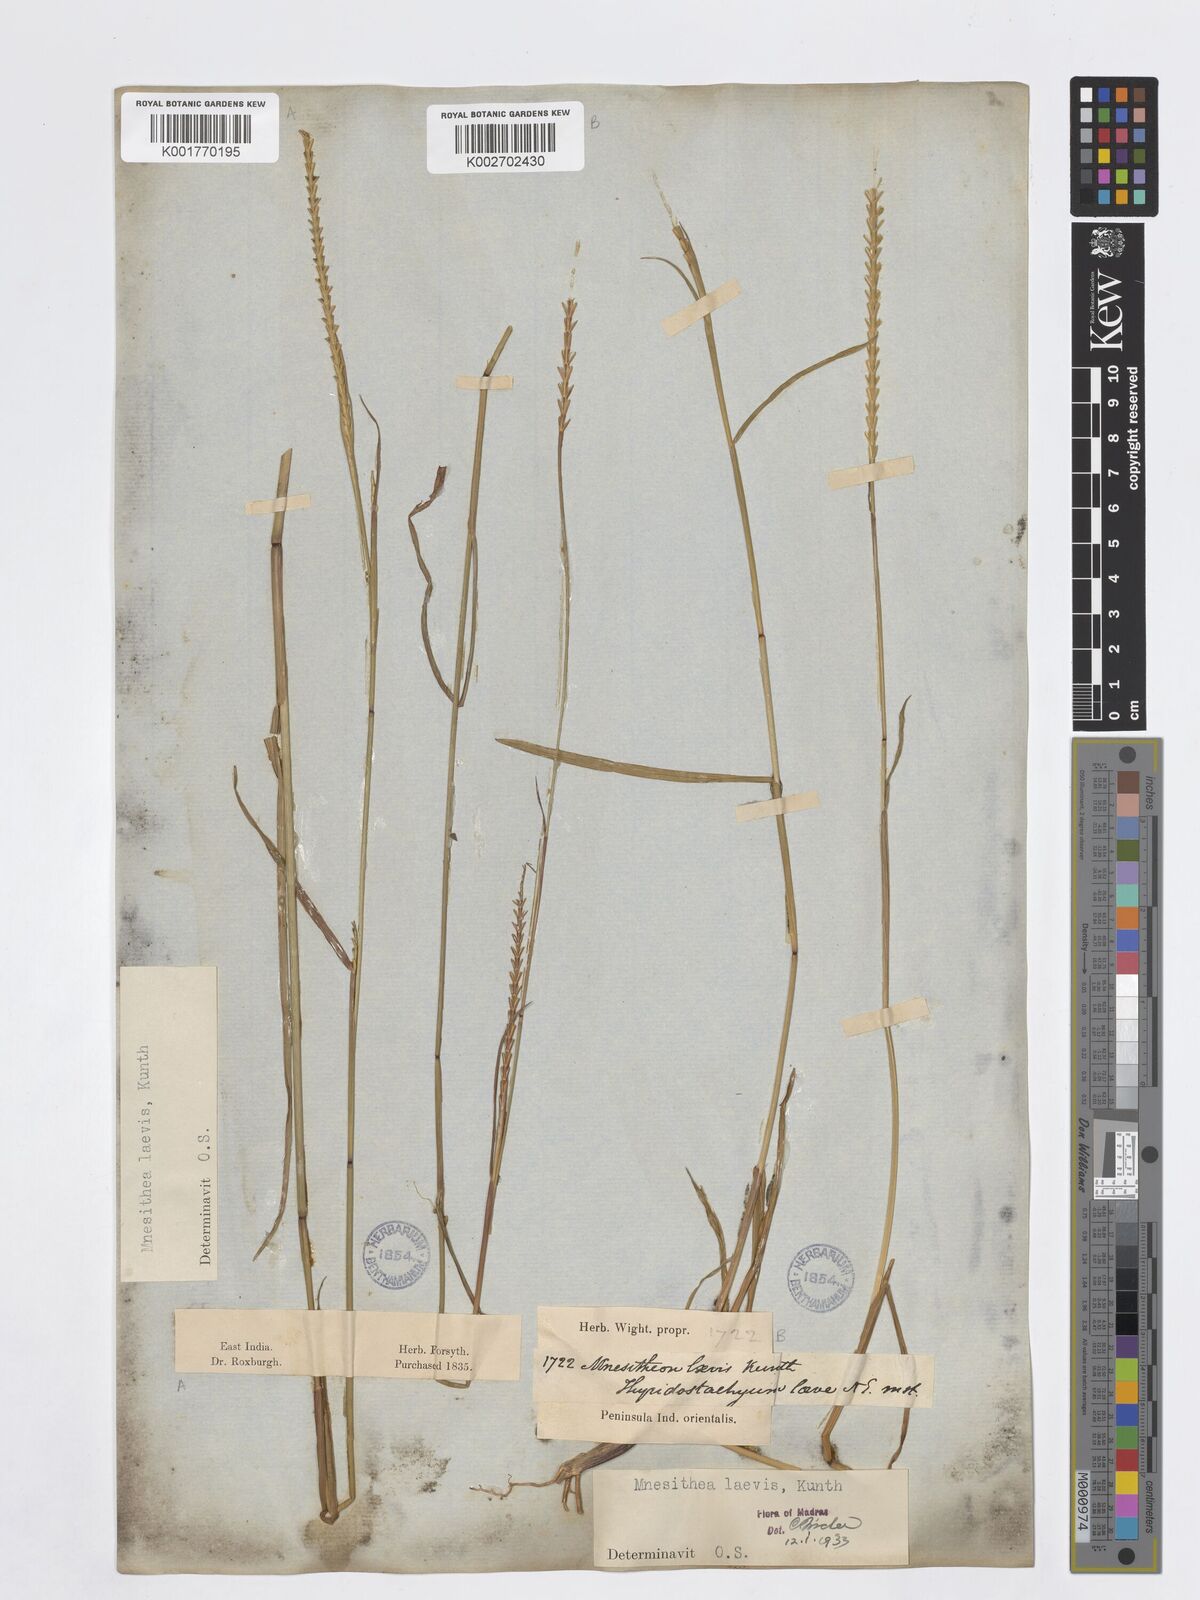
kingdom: Plantae
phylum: Tracheophyta
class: Liliopsida
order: Poales
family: Poaceae
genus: Mnesithea
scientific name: Mnesithea laevis
